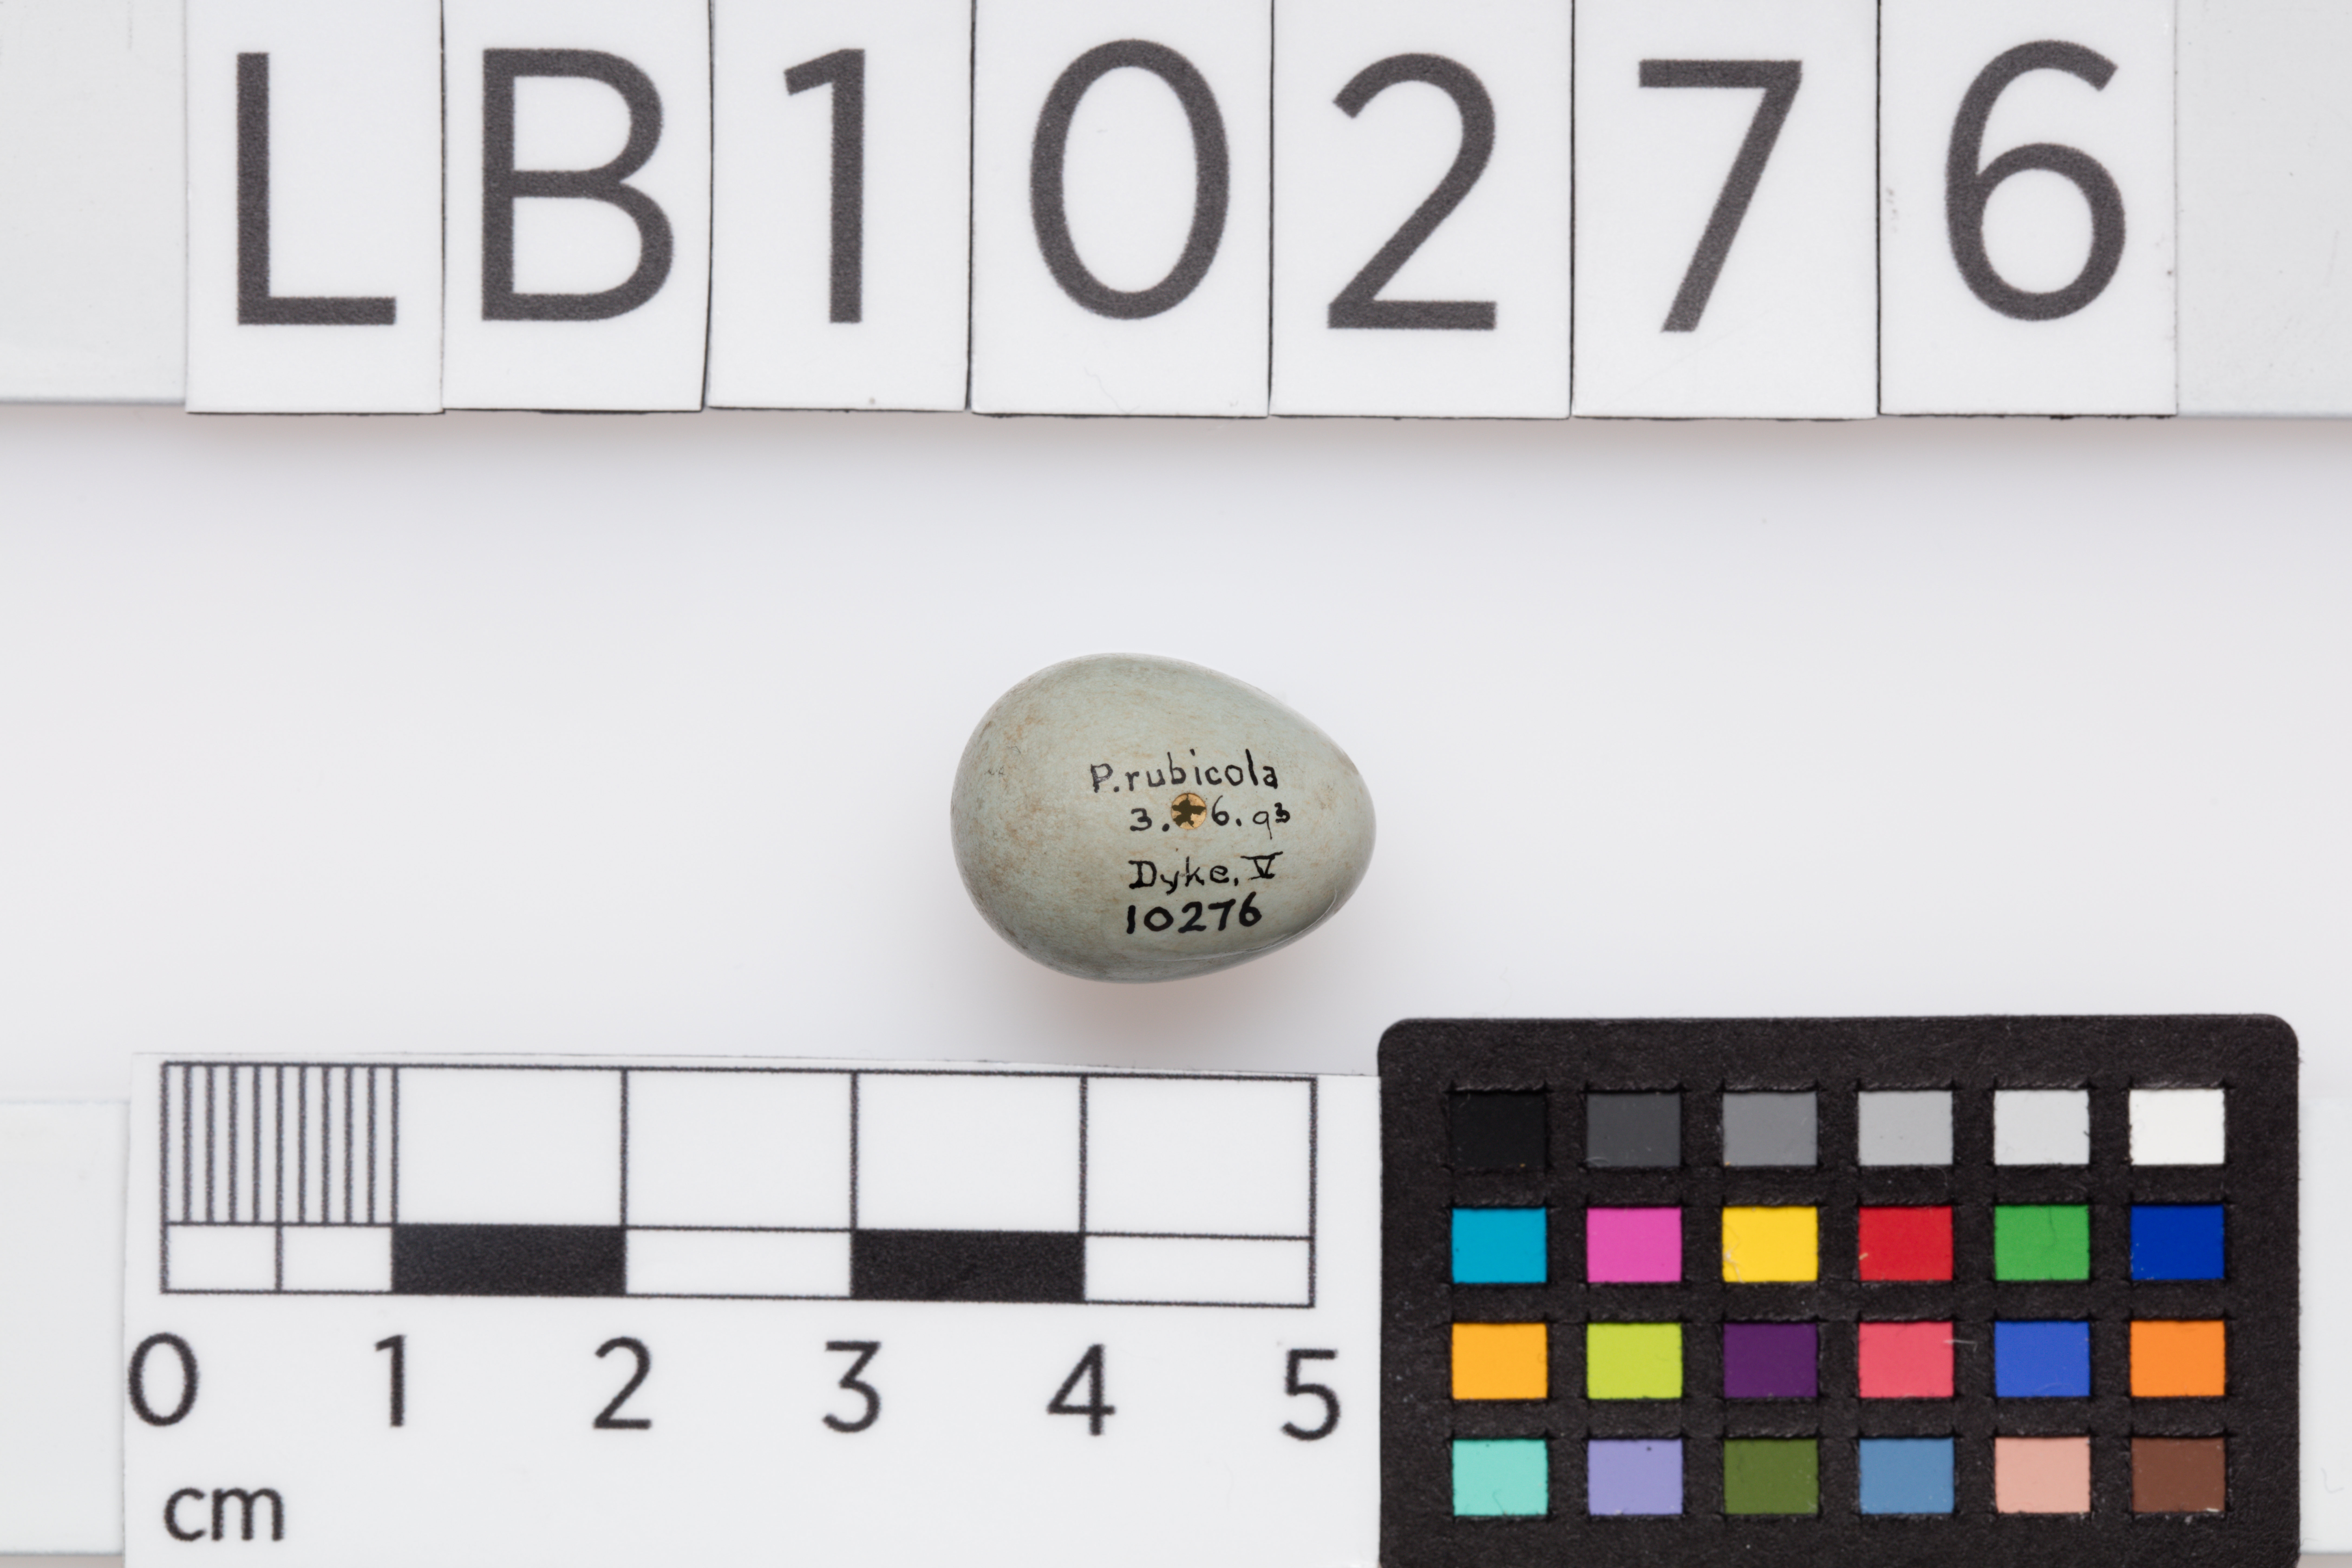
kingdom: Animalia
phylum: Chordata
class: Aves
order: Passeriformes
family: Muscicapidae
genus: Saxicola
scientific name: Saxicola torquatus
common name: African stonechat
